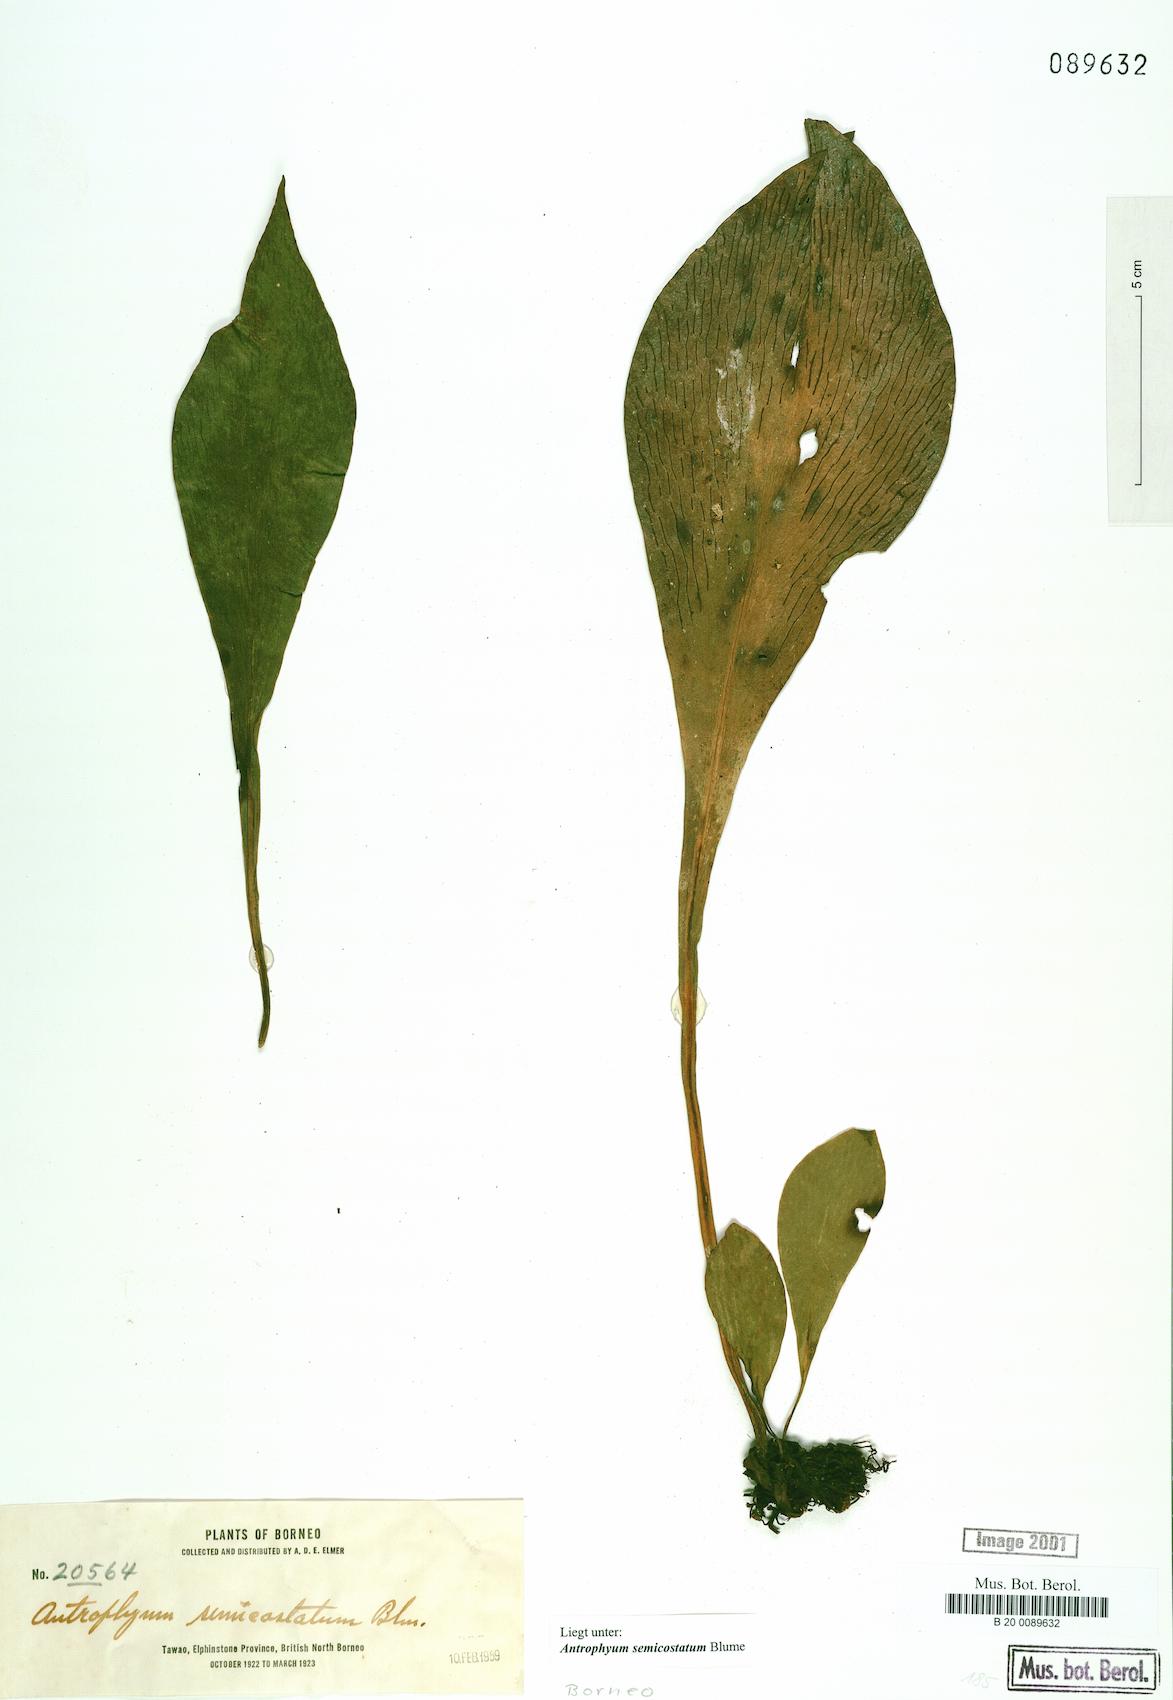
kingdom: Plantae
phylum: Tracheophyta
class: Polypodiopsida
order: Polypodiales
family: Pteridaceae
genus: Antrophyum
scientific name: Antrophyum semicostatum
